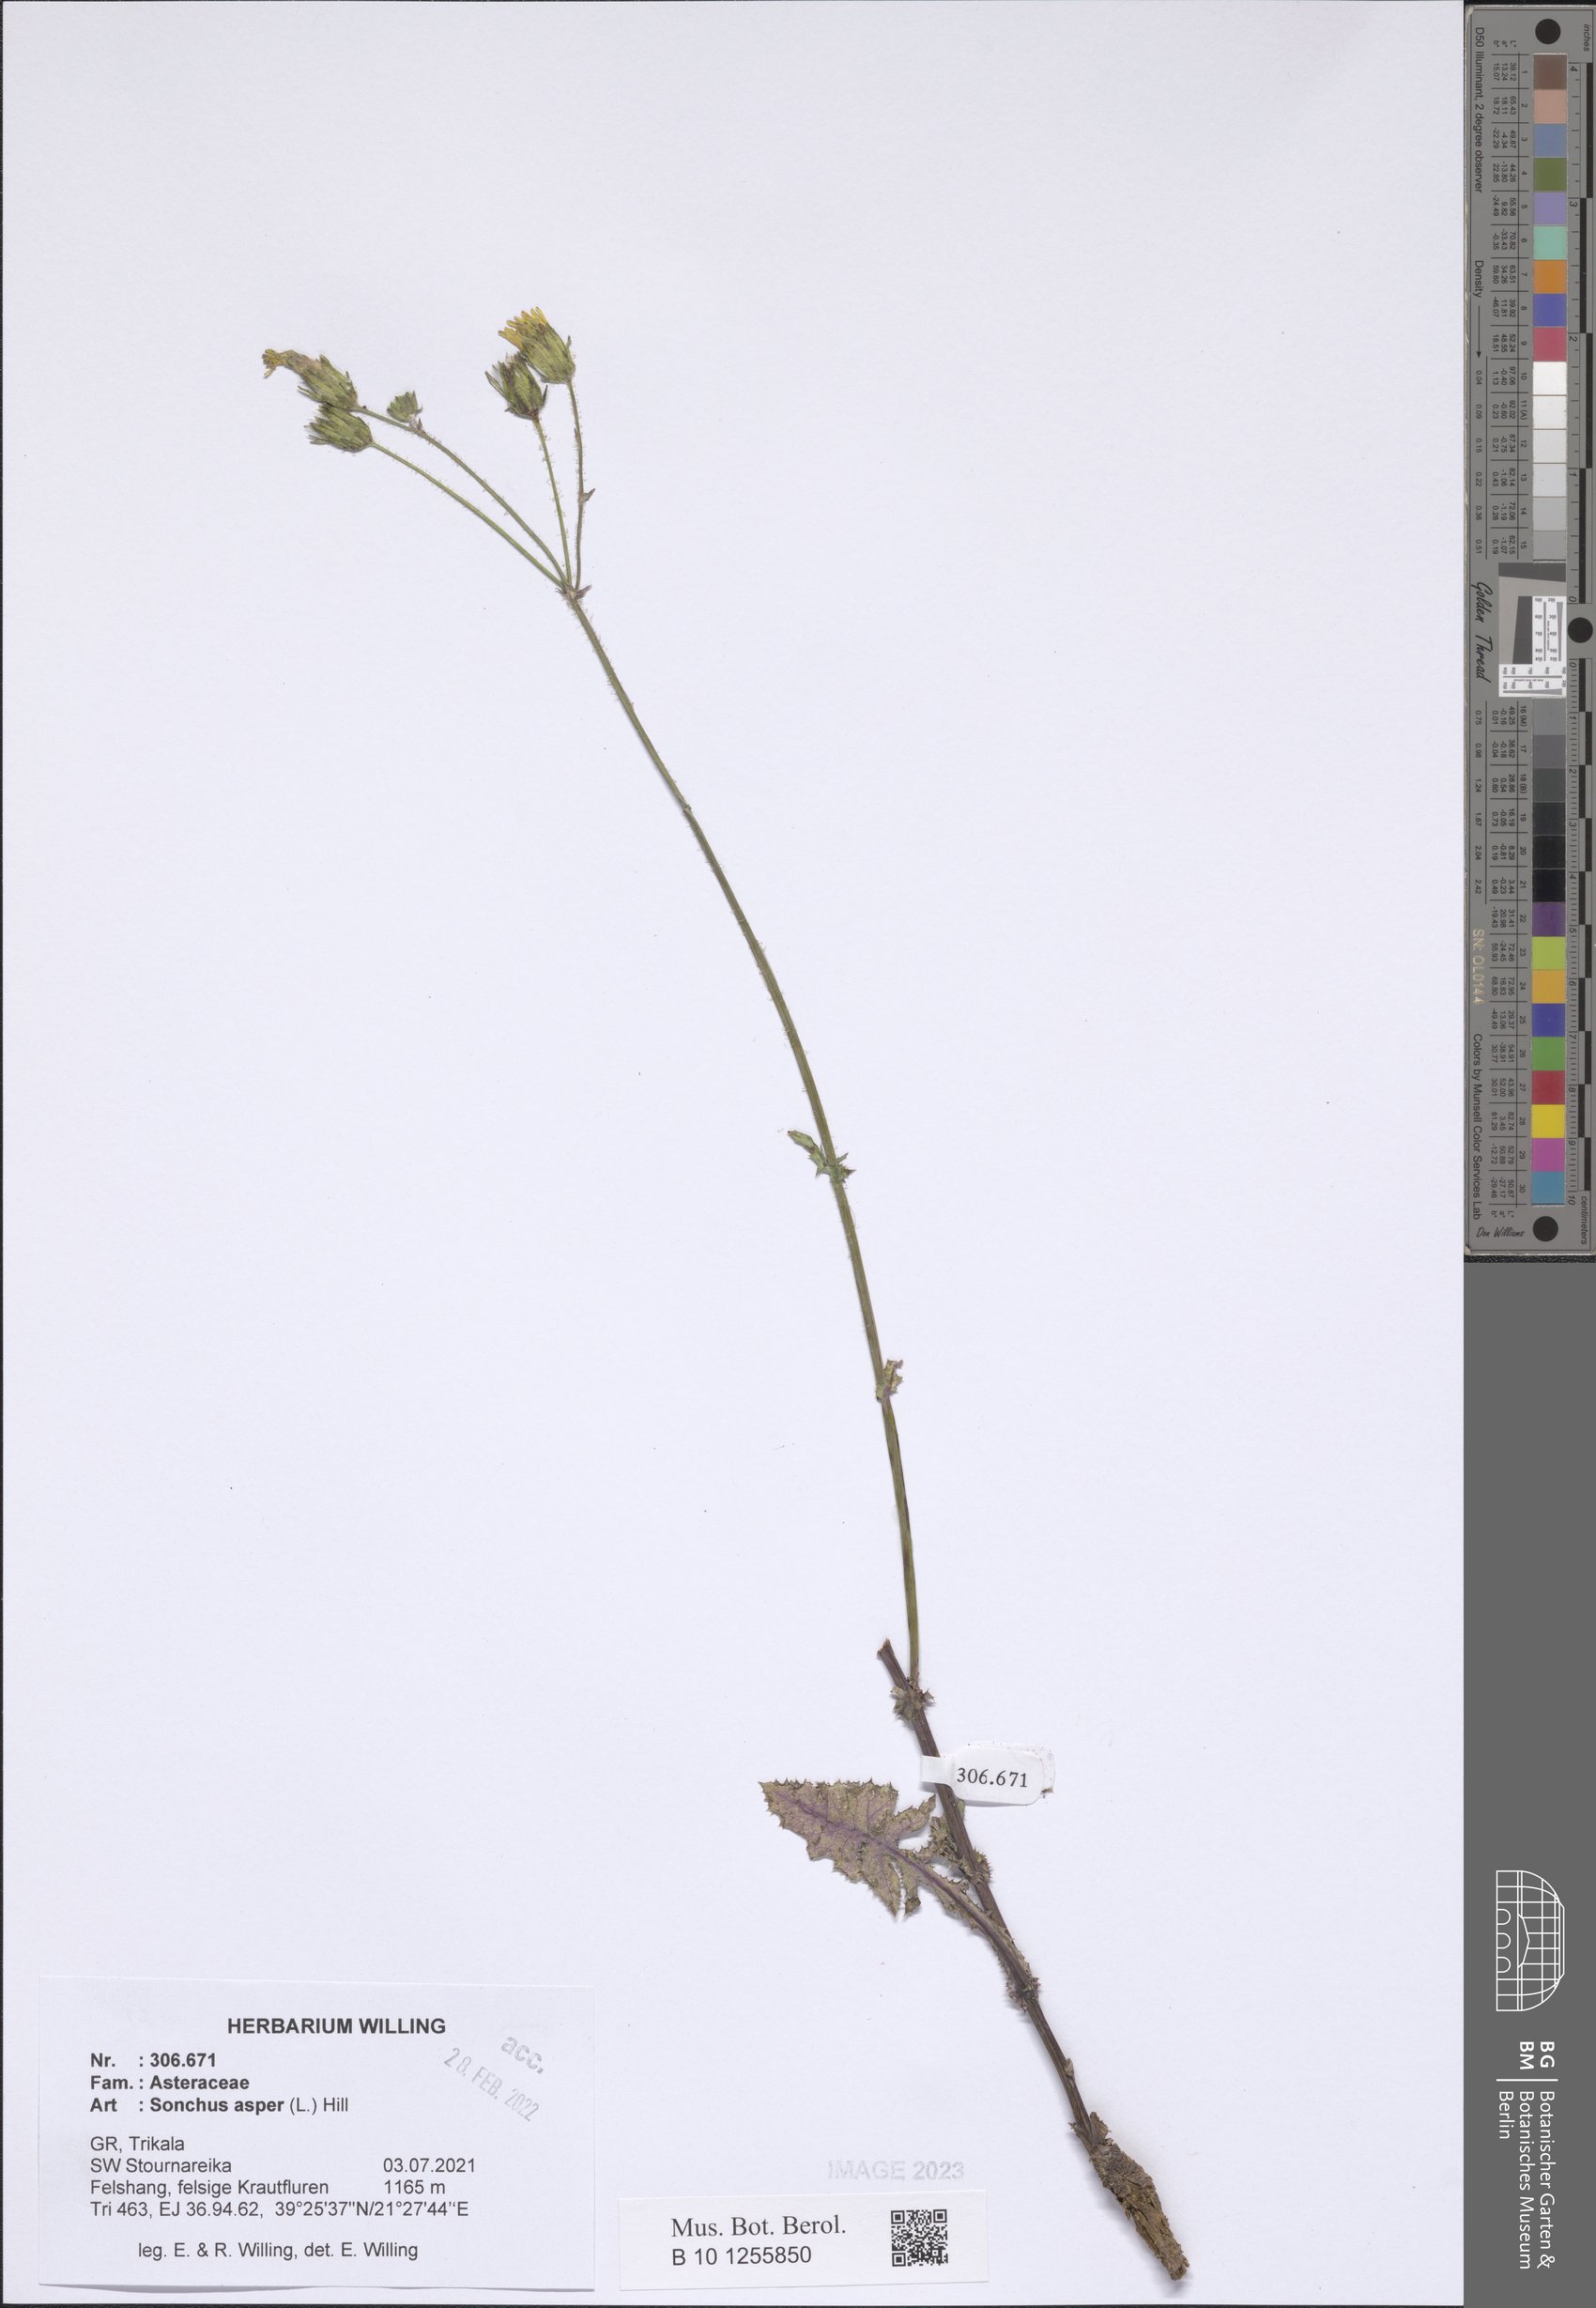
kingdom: Plantae
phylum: Tracheophyta
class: Magnoliopsida
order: Asterales
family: Asteraceae
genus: Sonchus
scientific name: Sonchus asper
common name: Prickly sow-thistle
